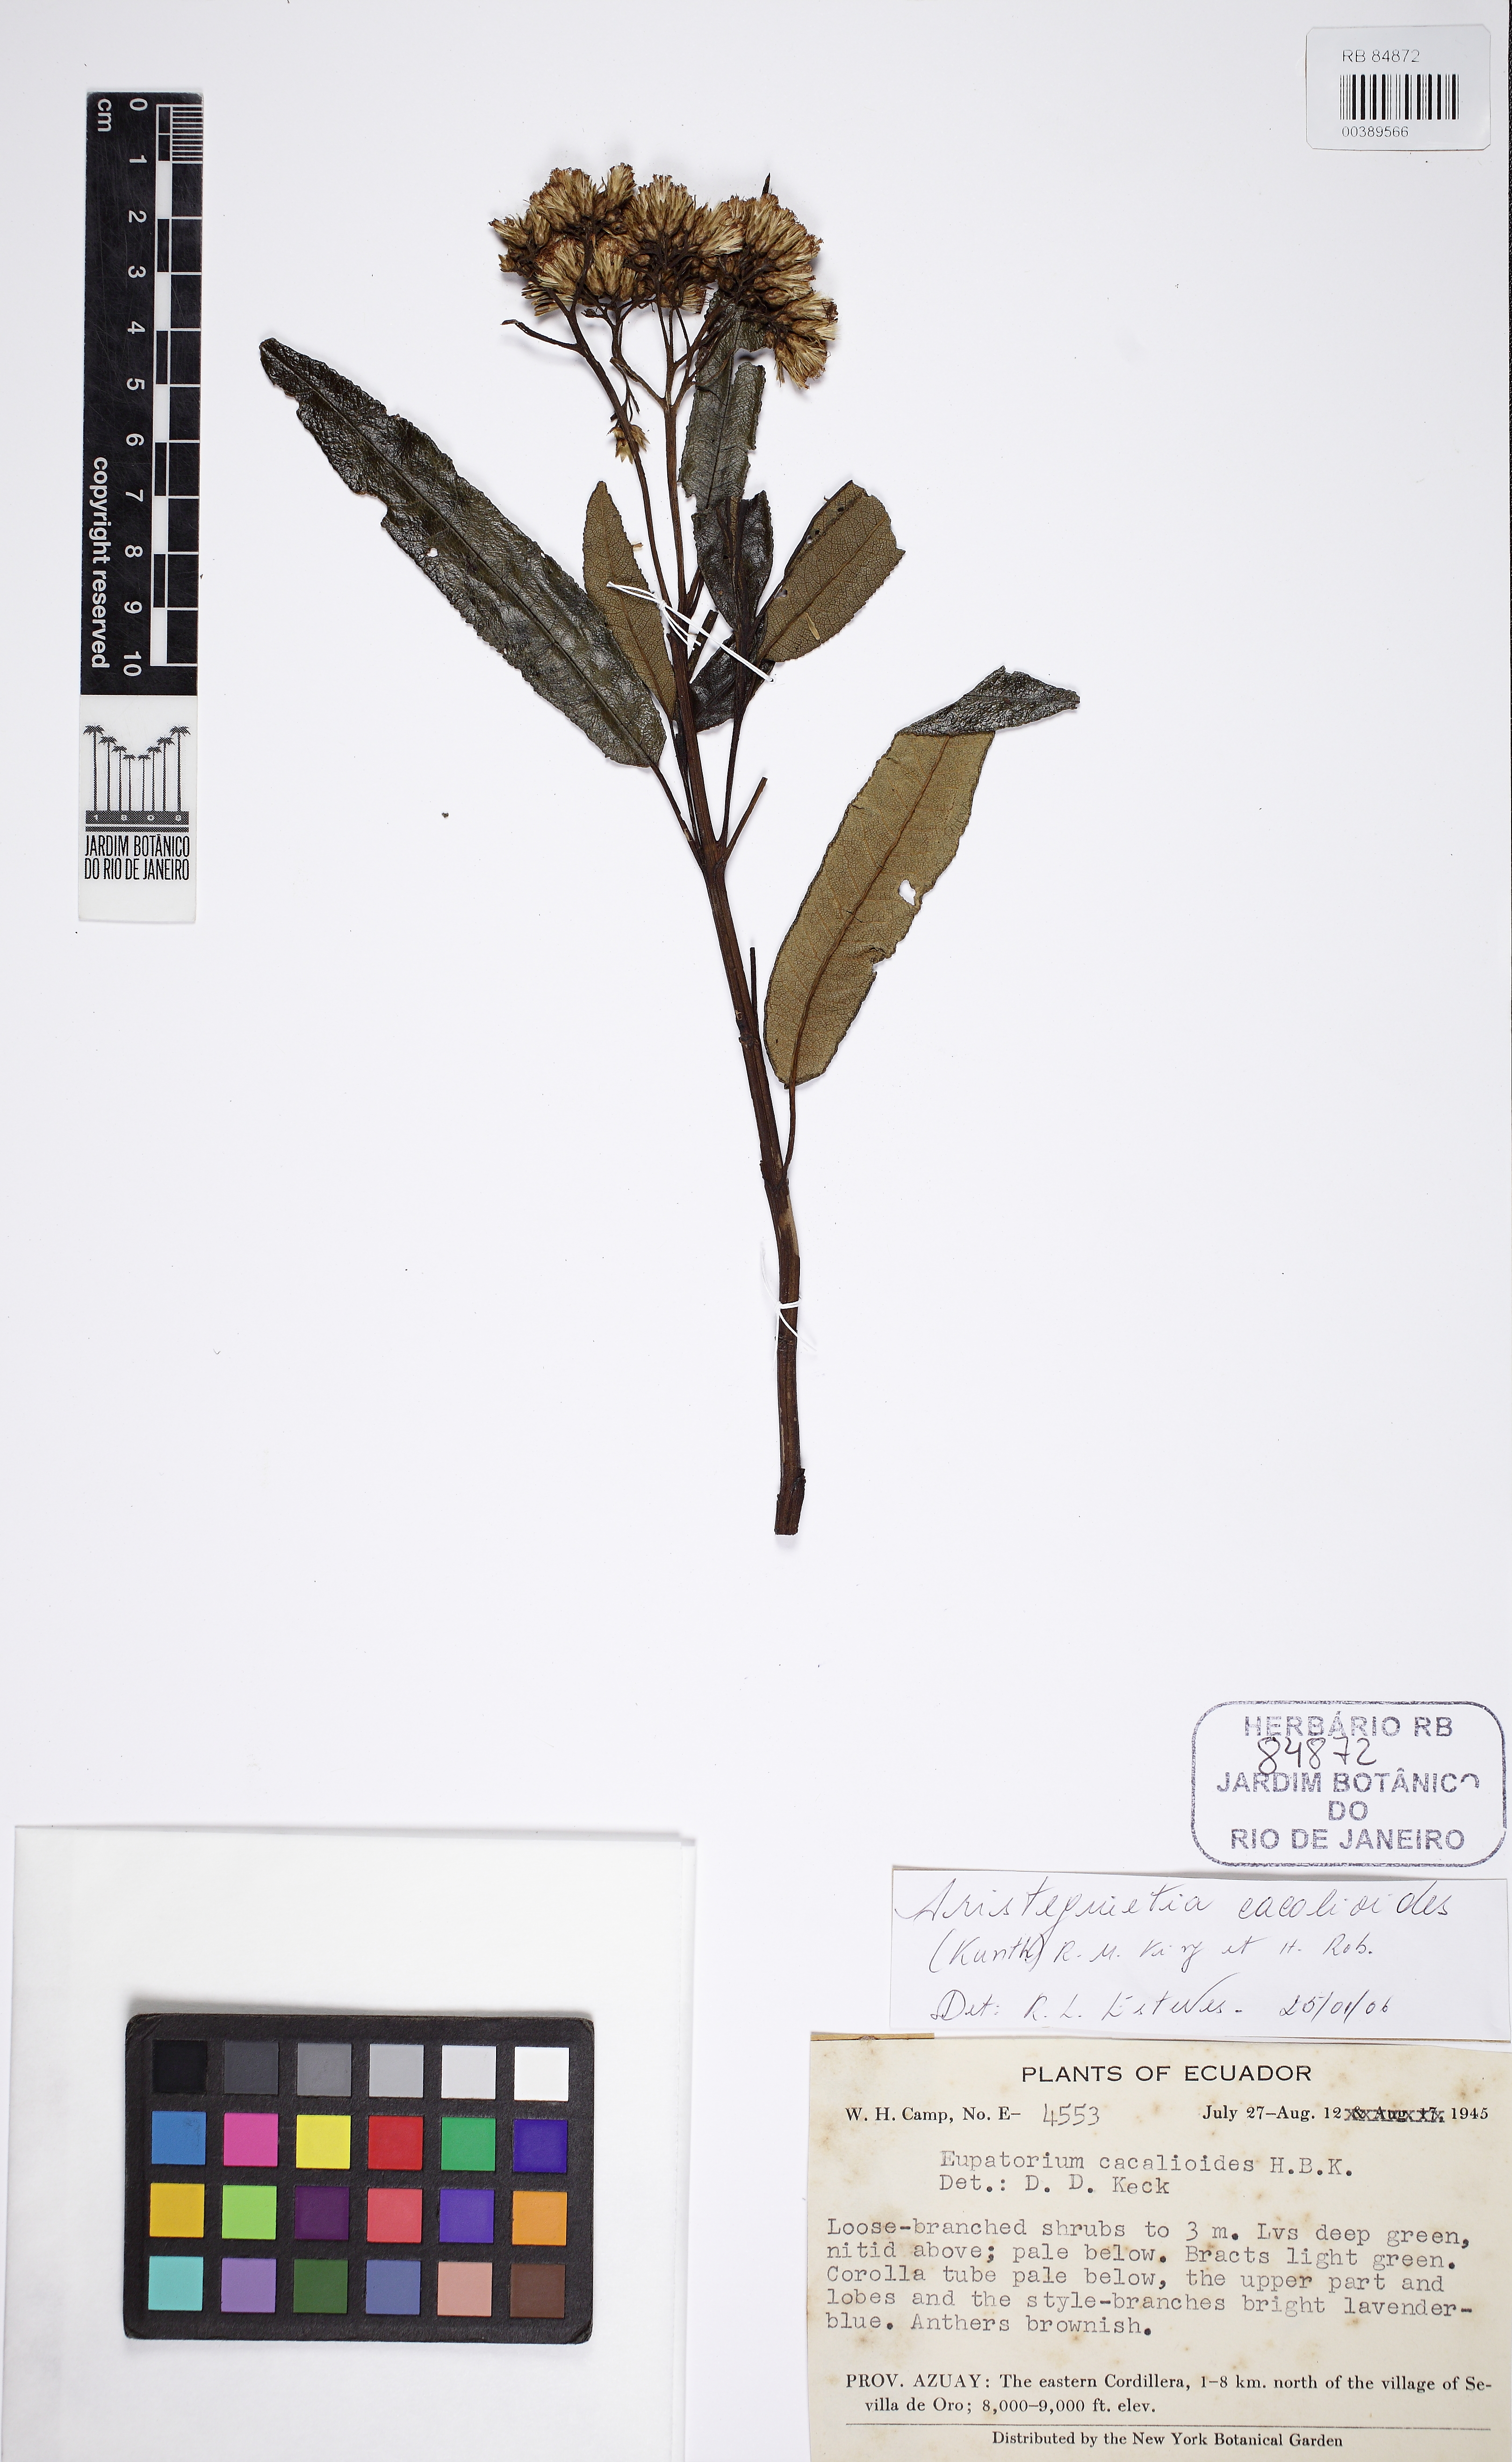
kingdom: Plantae
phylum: Tracheophyta
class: Magnoliopsida
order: Asterales
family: Asteraceae
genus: Aristeguietia
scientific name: Aristeguietia cacalioides
